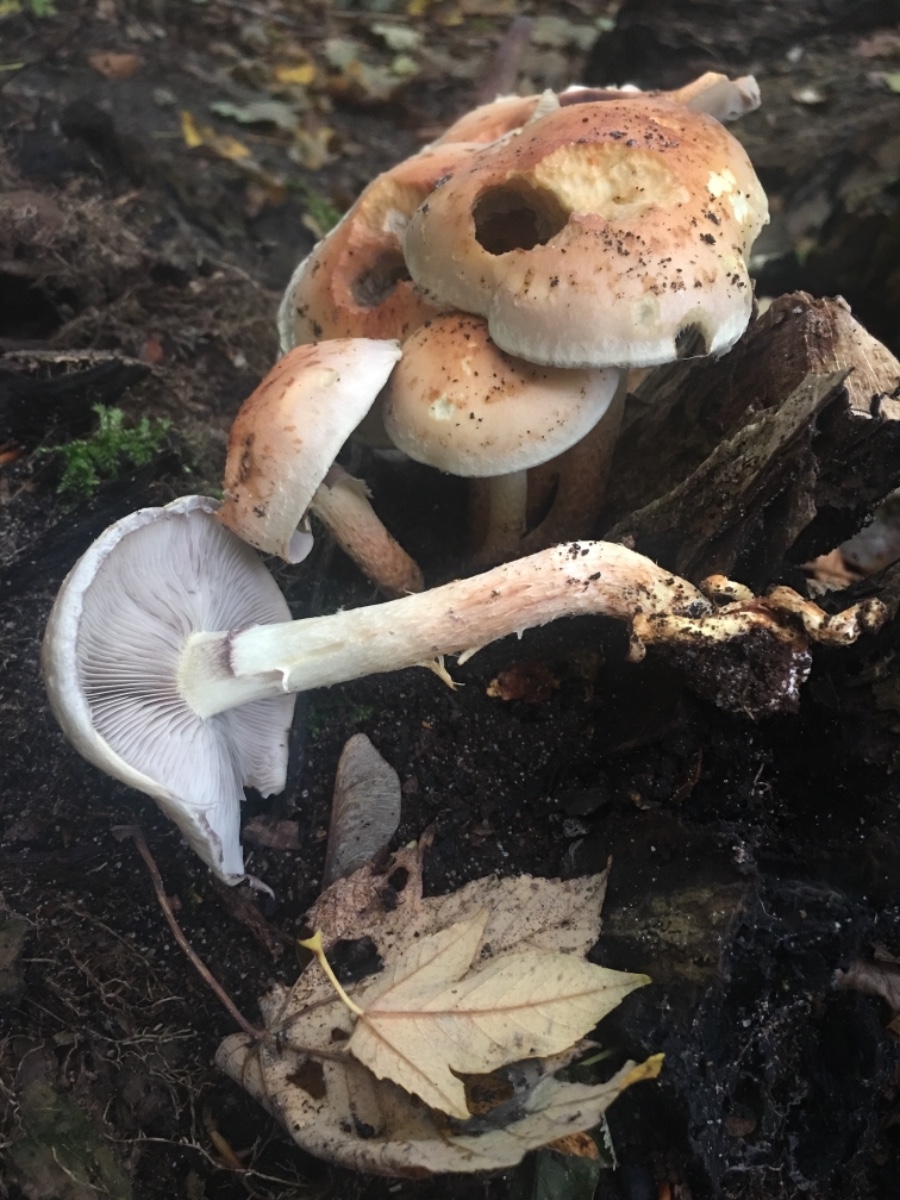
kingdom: Fungi
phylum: Basidiomycota
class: Agaricomycetes
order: Agaricales
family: Strophariaceae
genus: Hypholoma
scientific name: Hypholoma lateritium
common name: teglrød svovlhat
